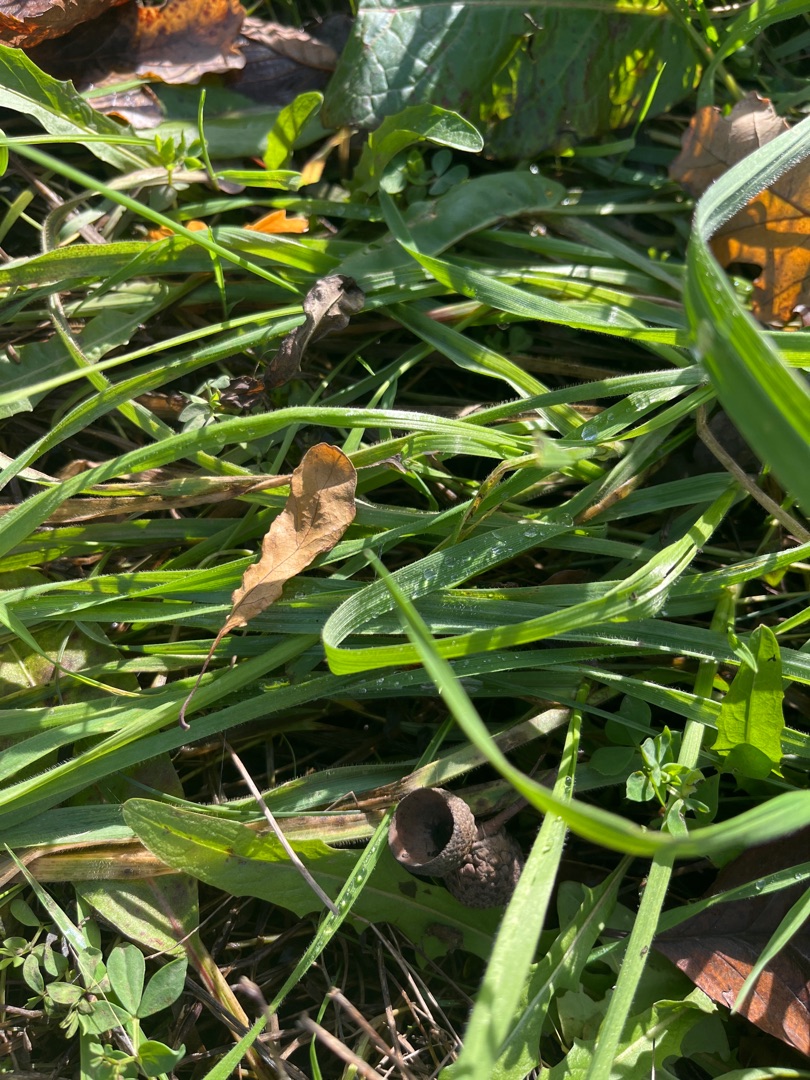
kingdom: Plantae
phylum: Tracheophyta
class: Liliopsida
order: Poales
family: Poaceae
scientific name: Poaceae
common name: Græsfamilien
